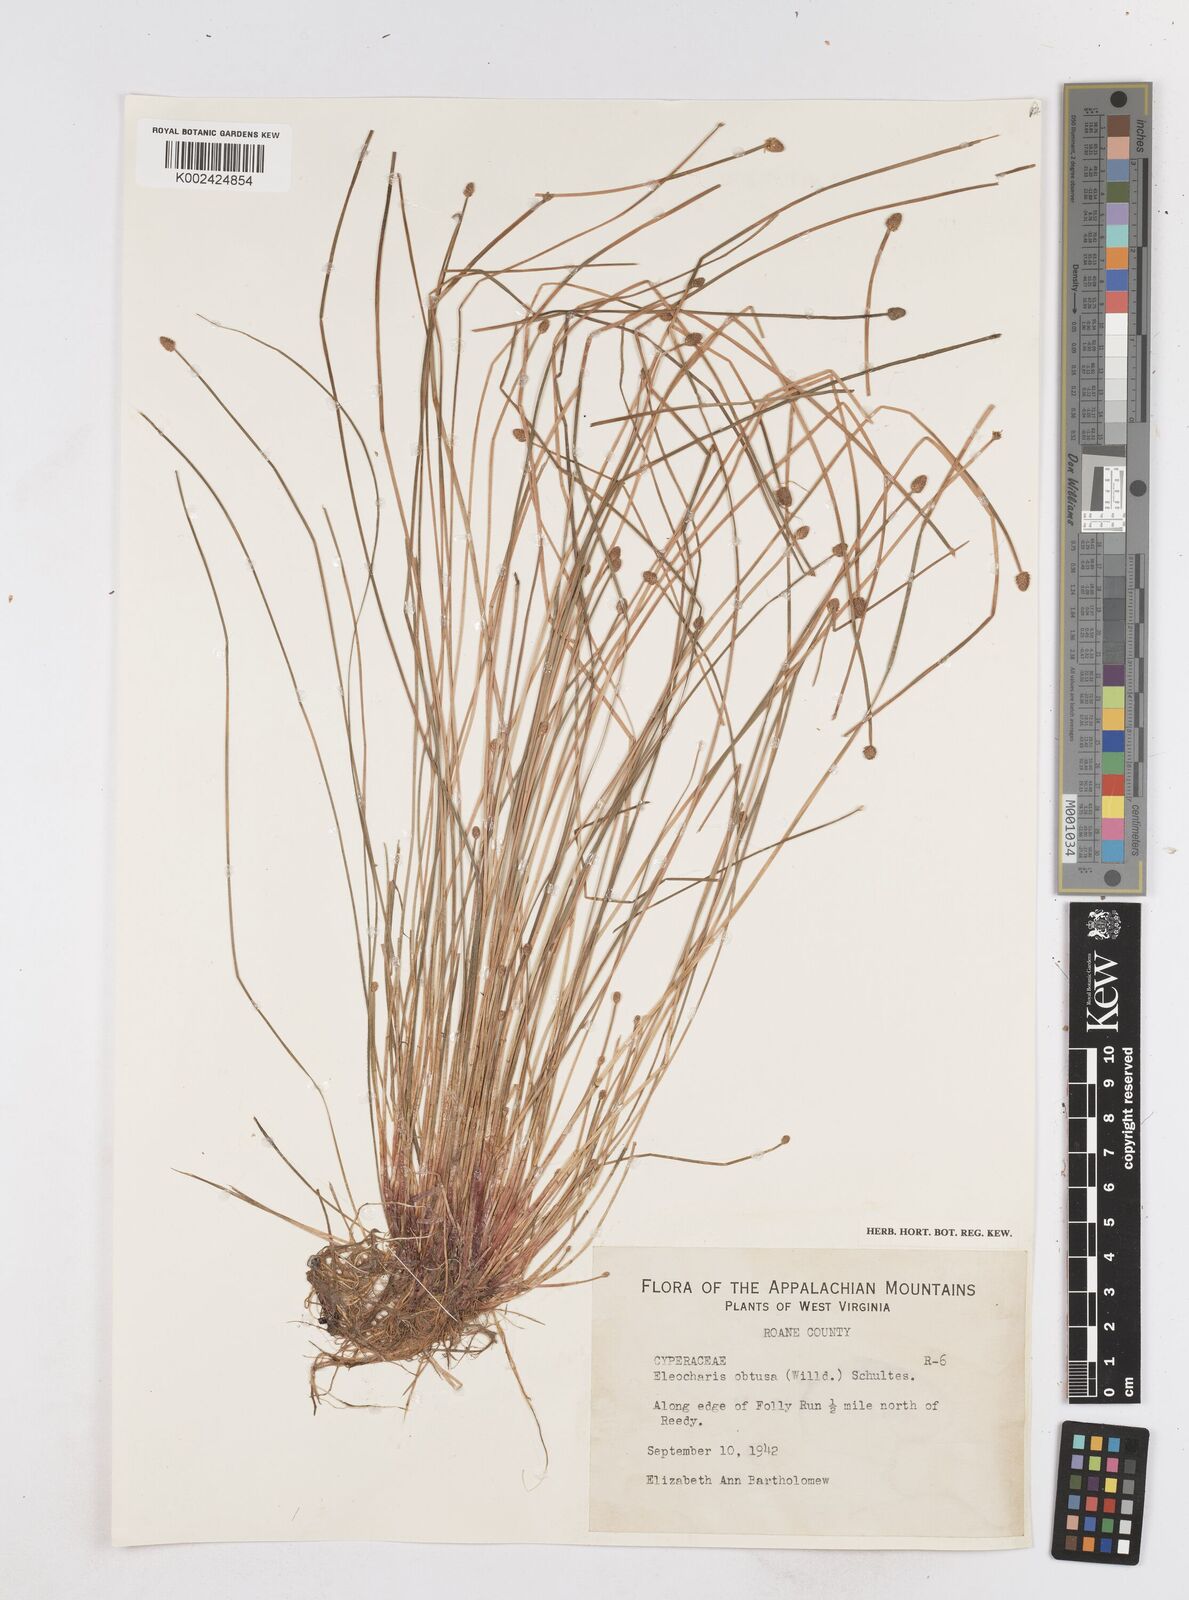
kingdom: Plantae
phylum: Tracheophyta
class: Liliopsida
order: Poales
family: Cyperaceae
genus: Eleocharis
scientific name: Eleocharis obtusa
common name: Blunt spikerush
